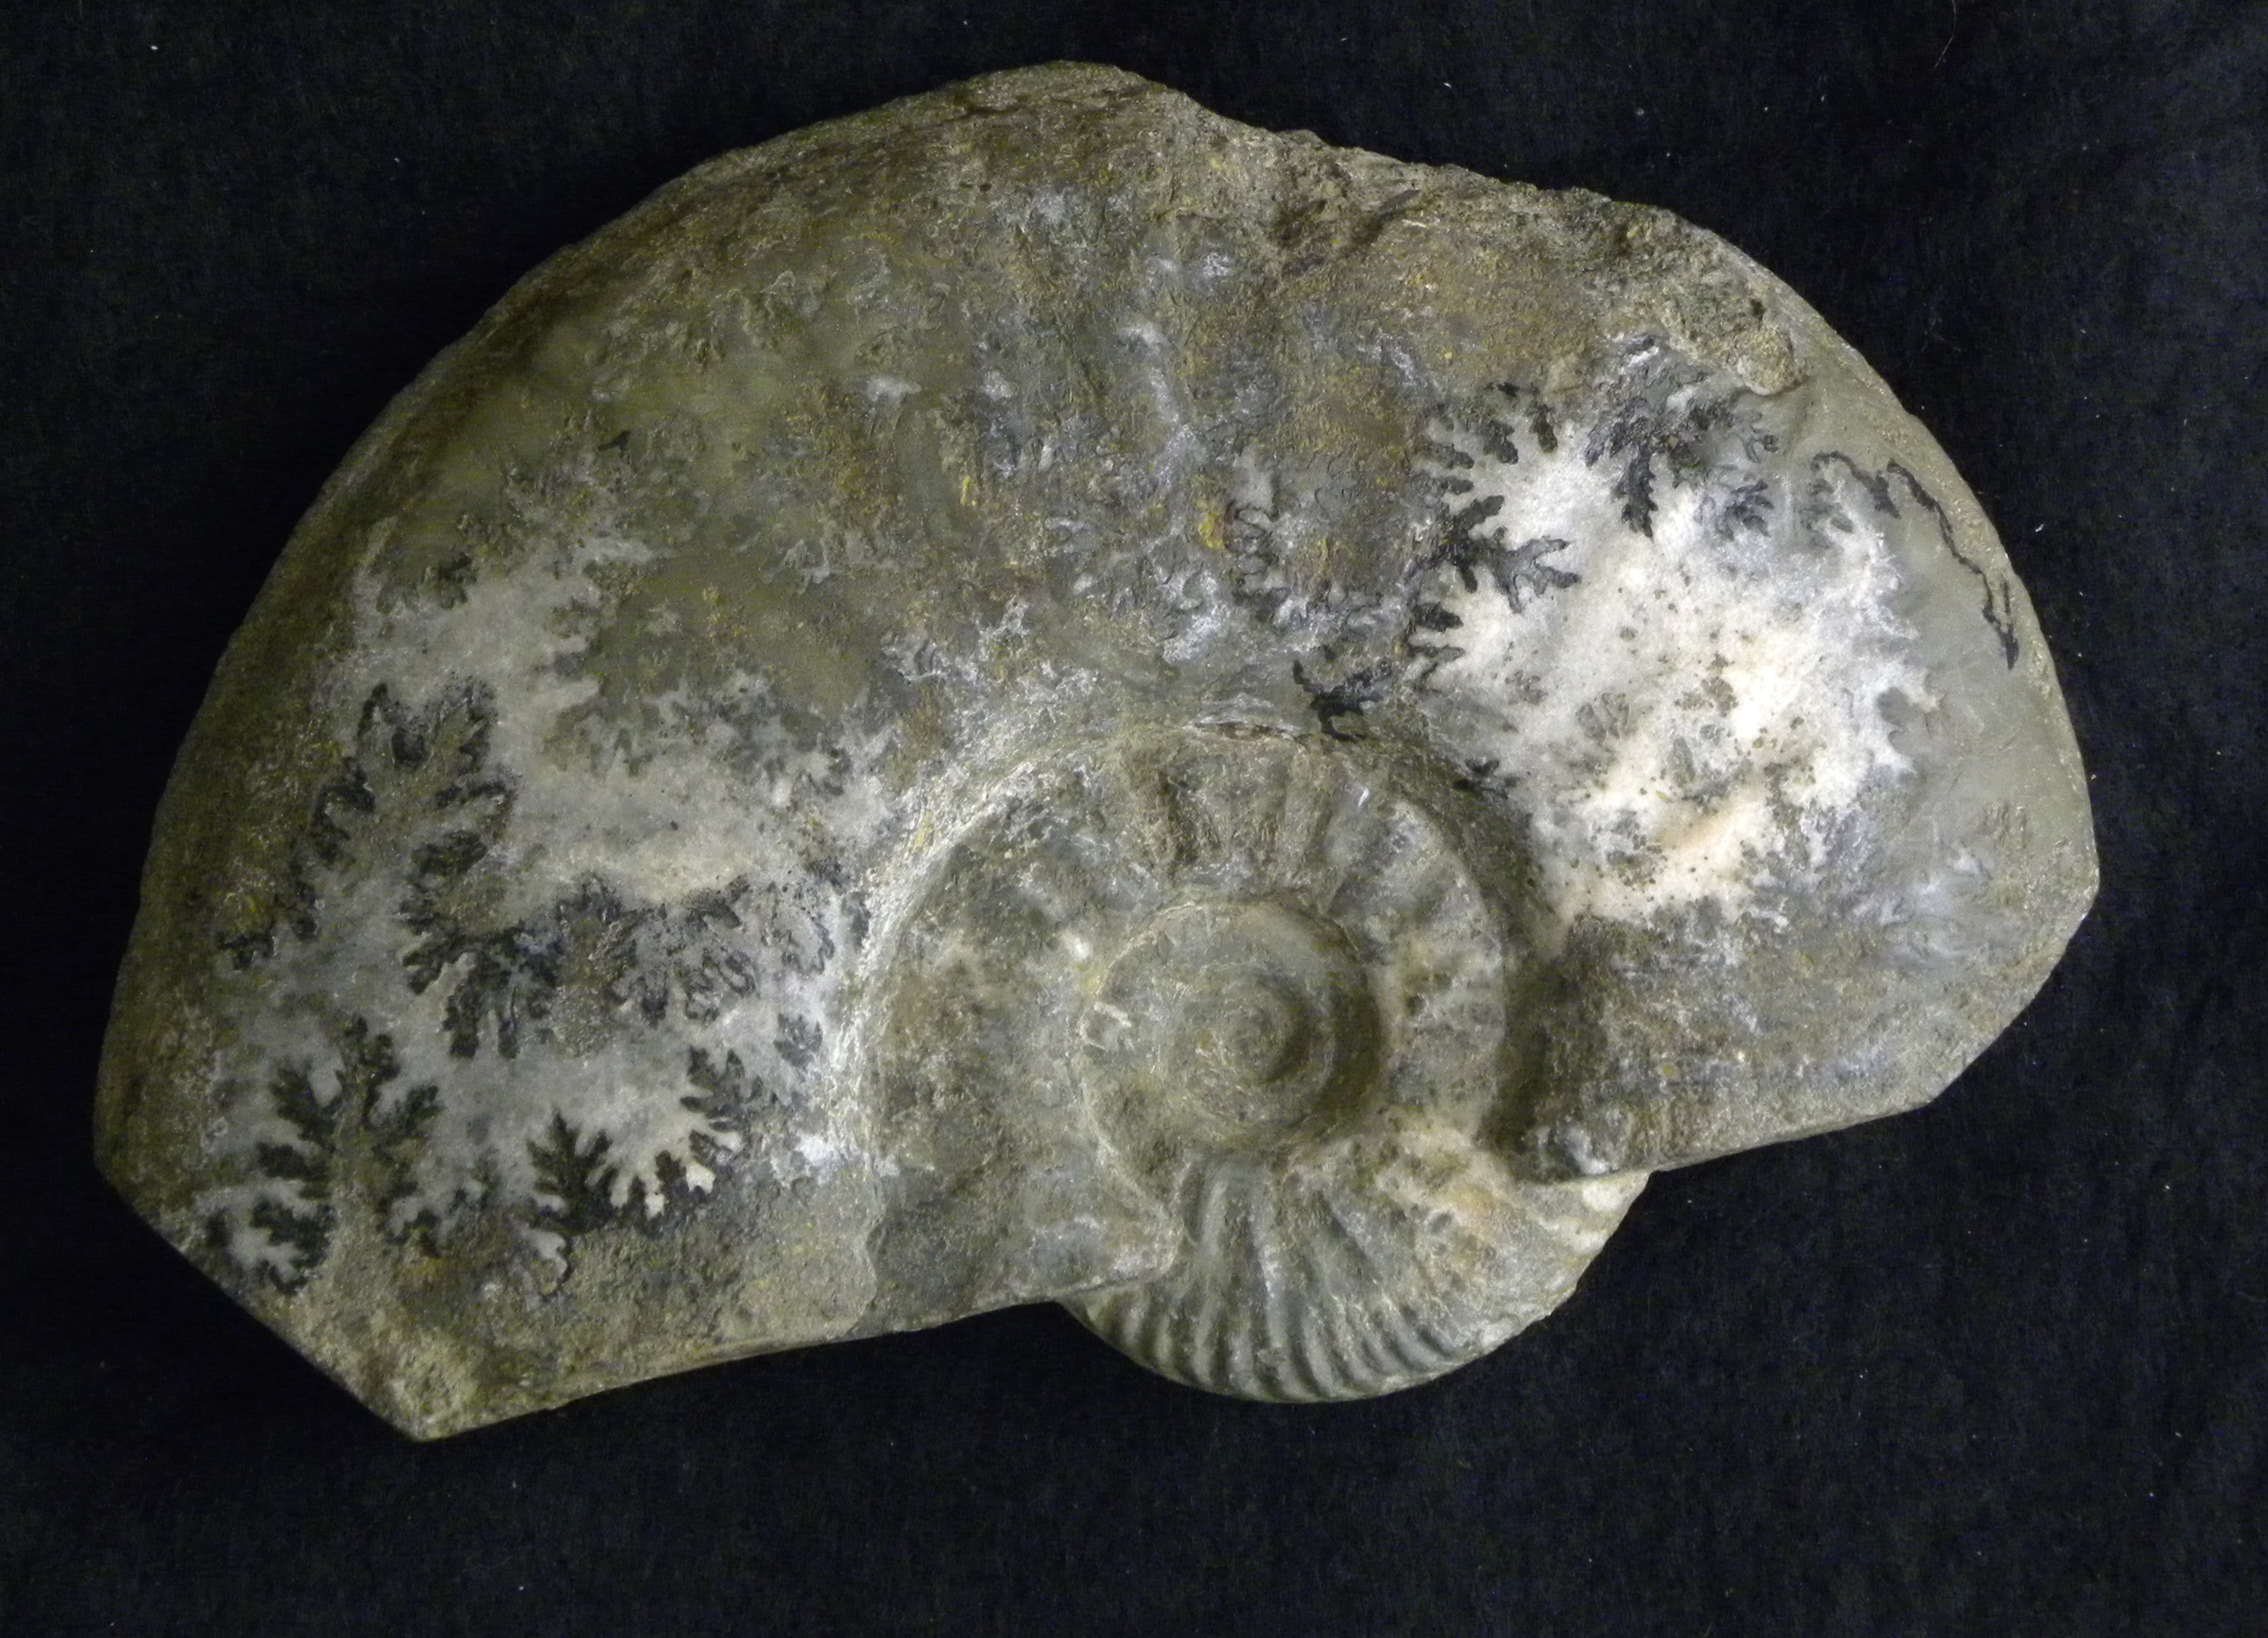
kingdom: Animalia
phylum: Mollusca
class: Cephalopoda
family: Hammatoceratidae
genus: Bredyia
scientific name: Bredyia brancoi
